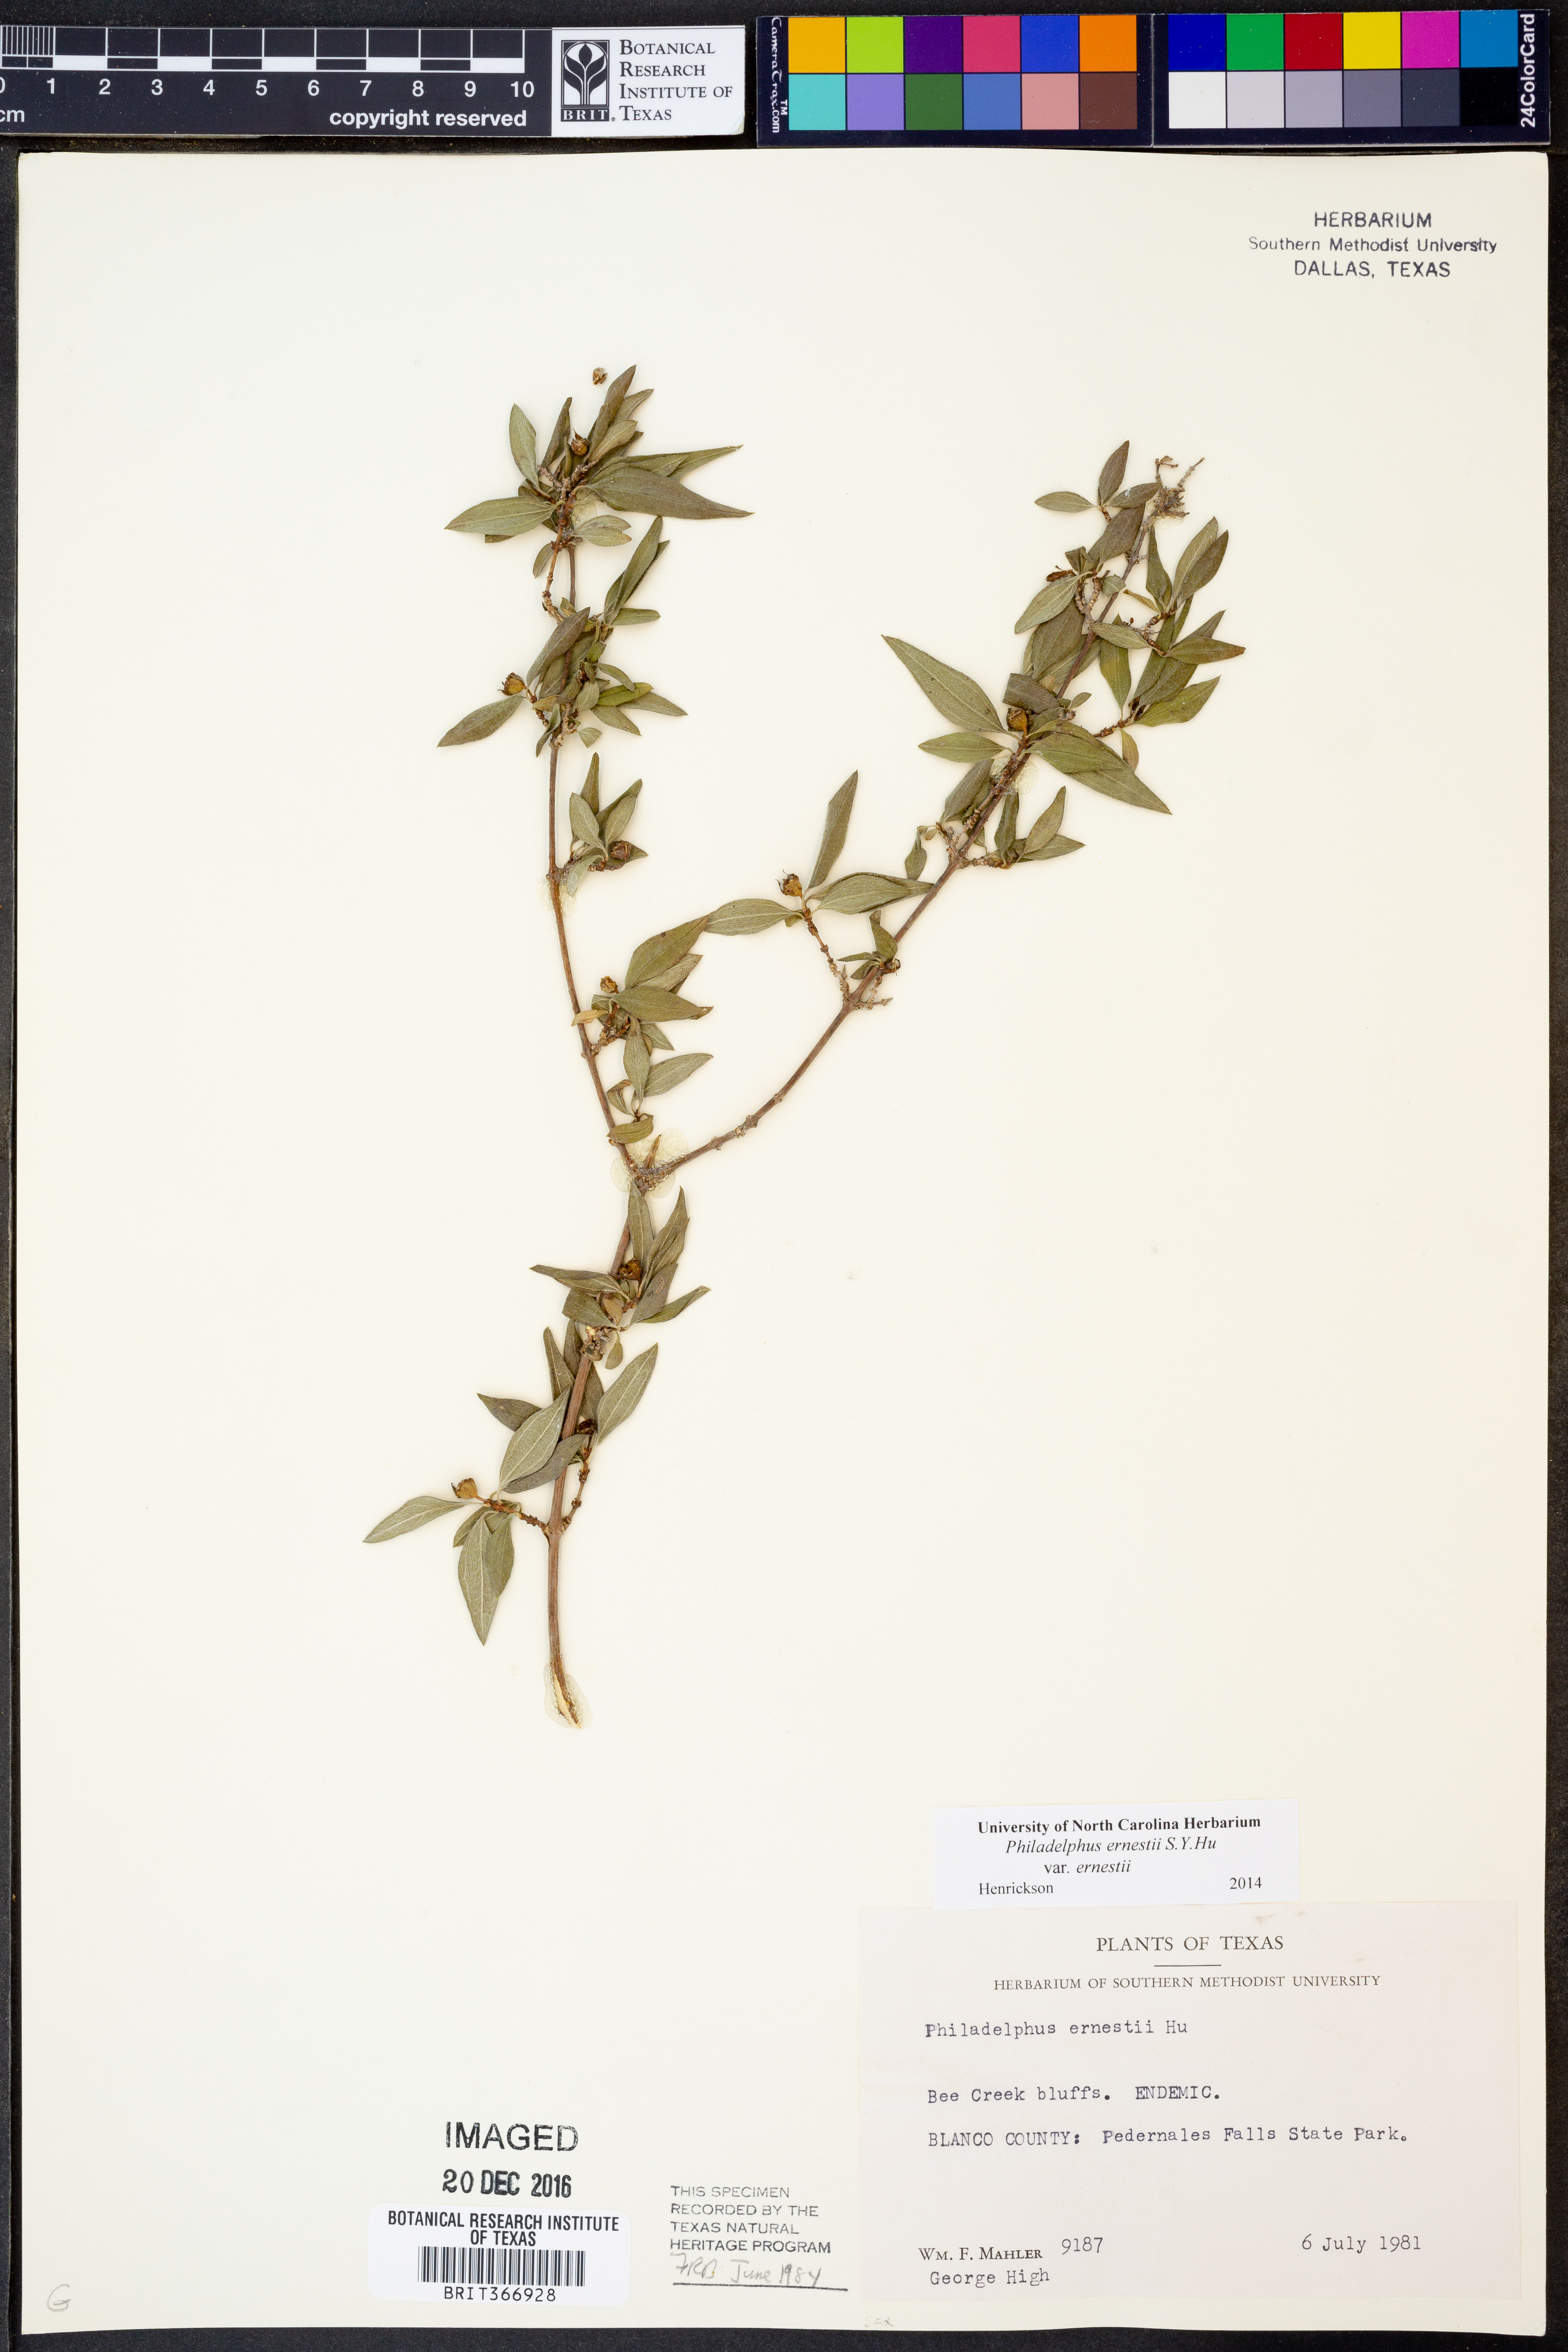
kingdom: Plantae
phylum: Tracheophyta
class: Magnoliopsida
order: Cornales
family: Hydrangeaceae
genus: Philadelphus
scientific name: Philadelphus texensis
